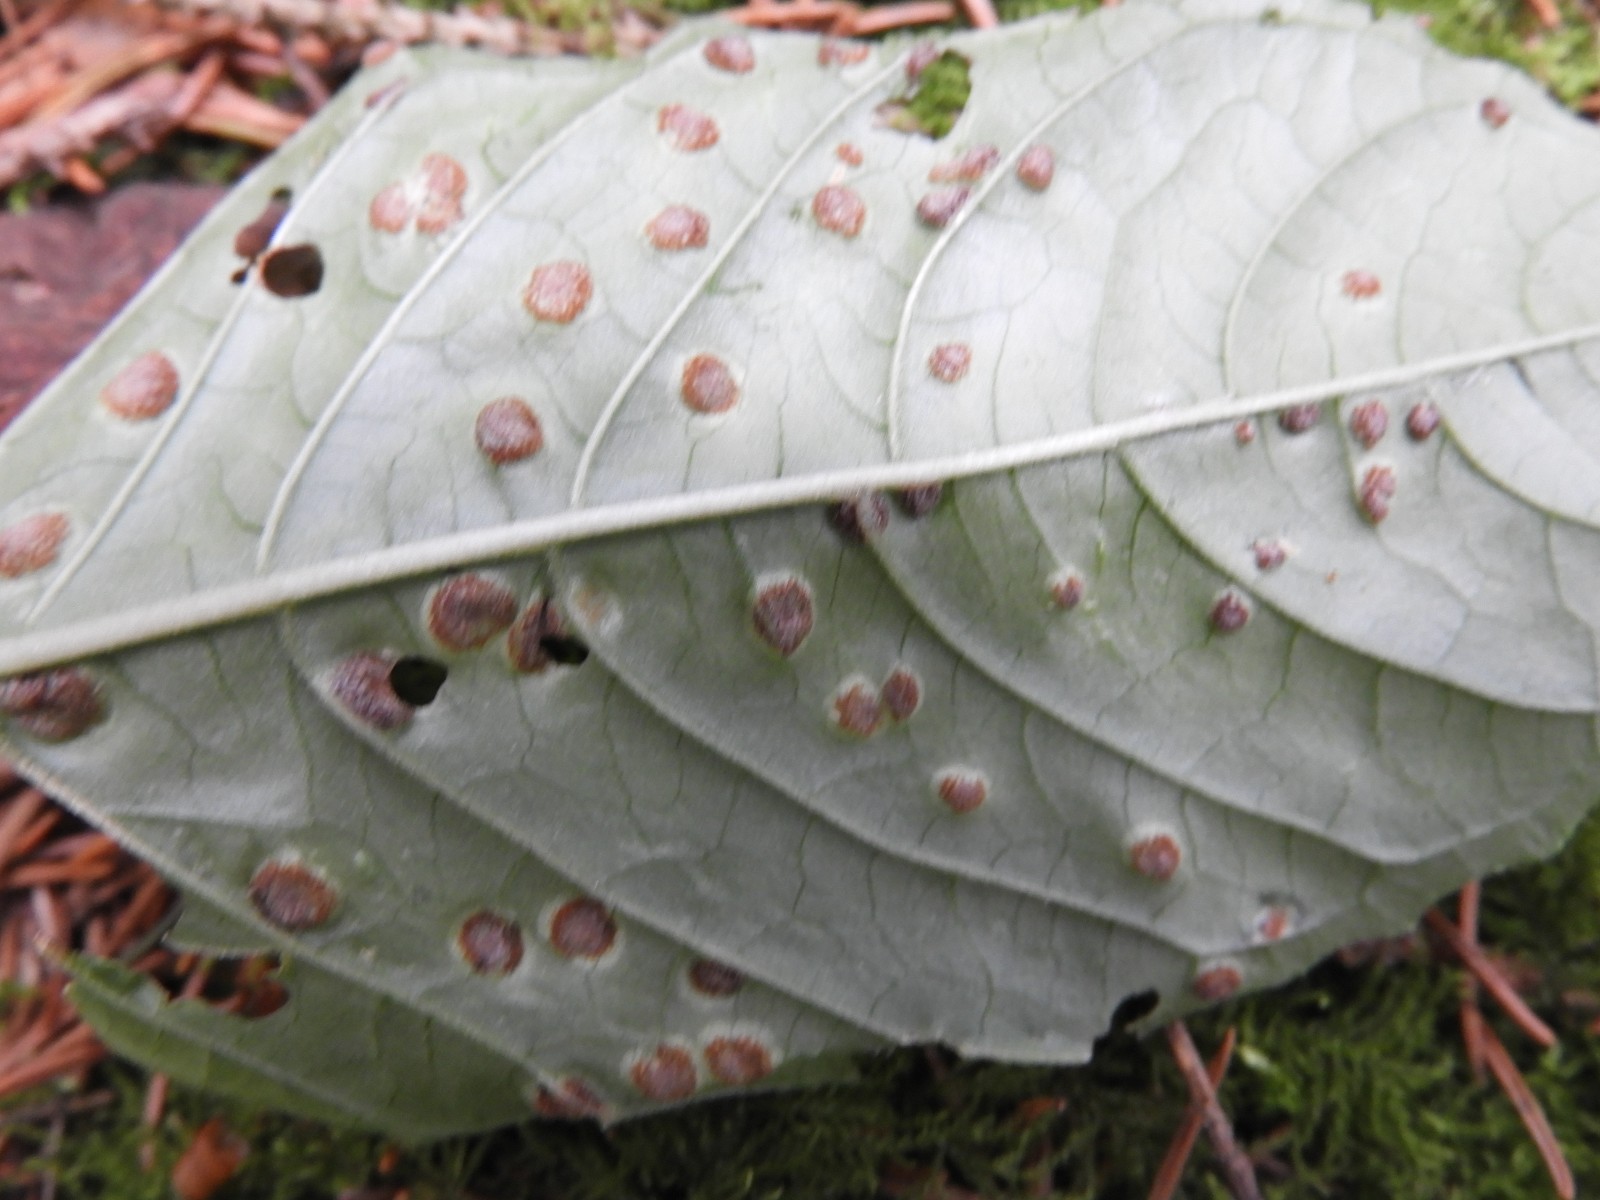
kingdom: Fungi
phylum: Basidiomycota
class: Pucciniomycetes
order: Pucciniales
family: Pucciniaceae
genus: Puccinia
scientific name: Puccinia circaeae
